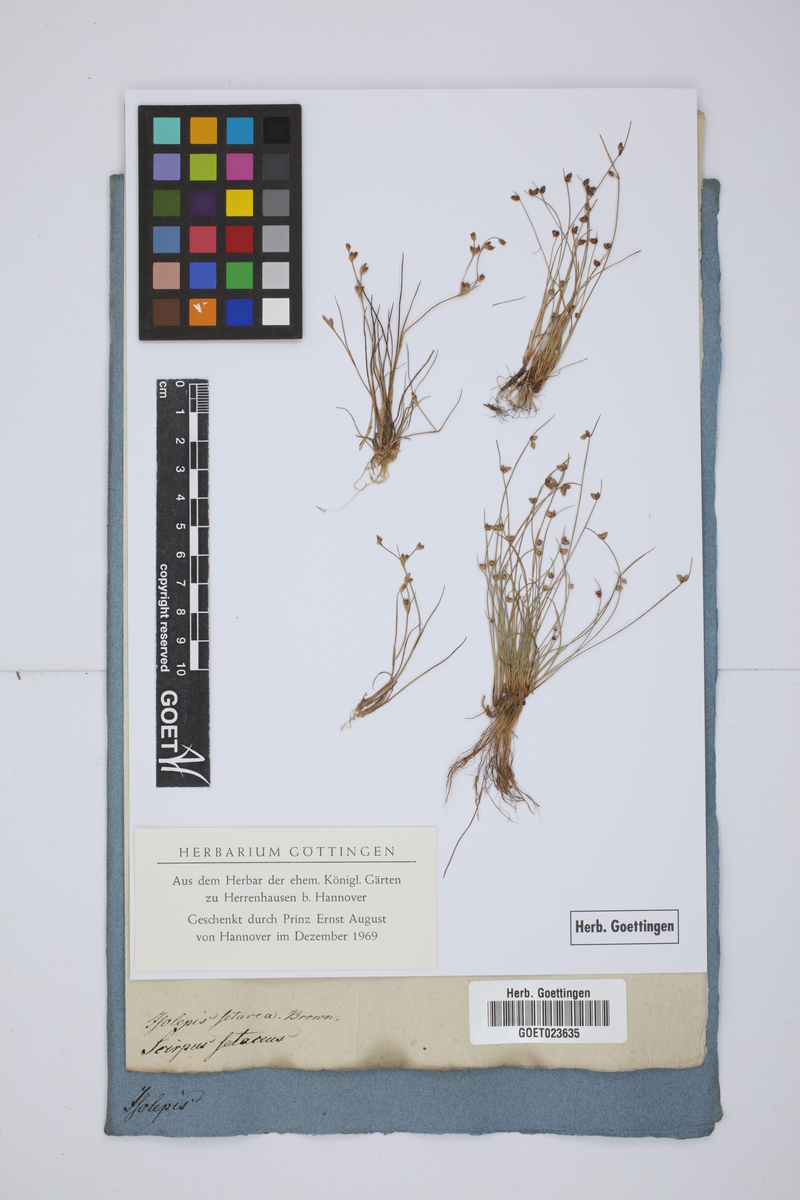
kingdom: Plantae
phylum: Tracheophyta
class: Liliopsida
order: Poales
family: Cyperaceae
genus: Isolepis
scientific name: Isolepis setacea
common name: Bristle club-rush
